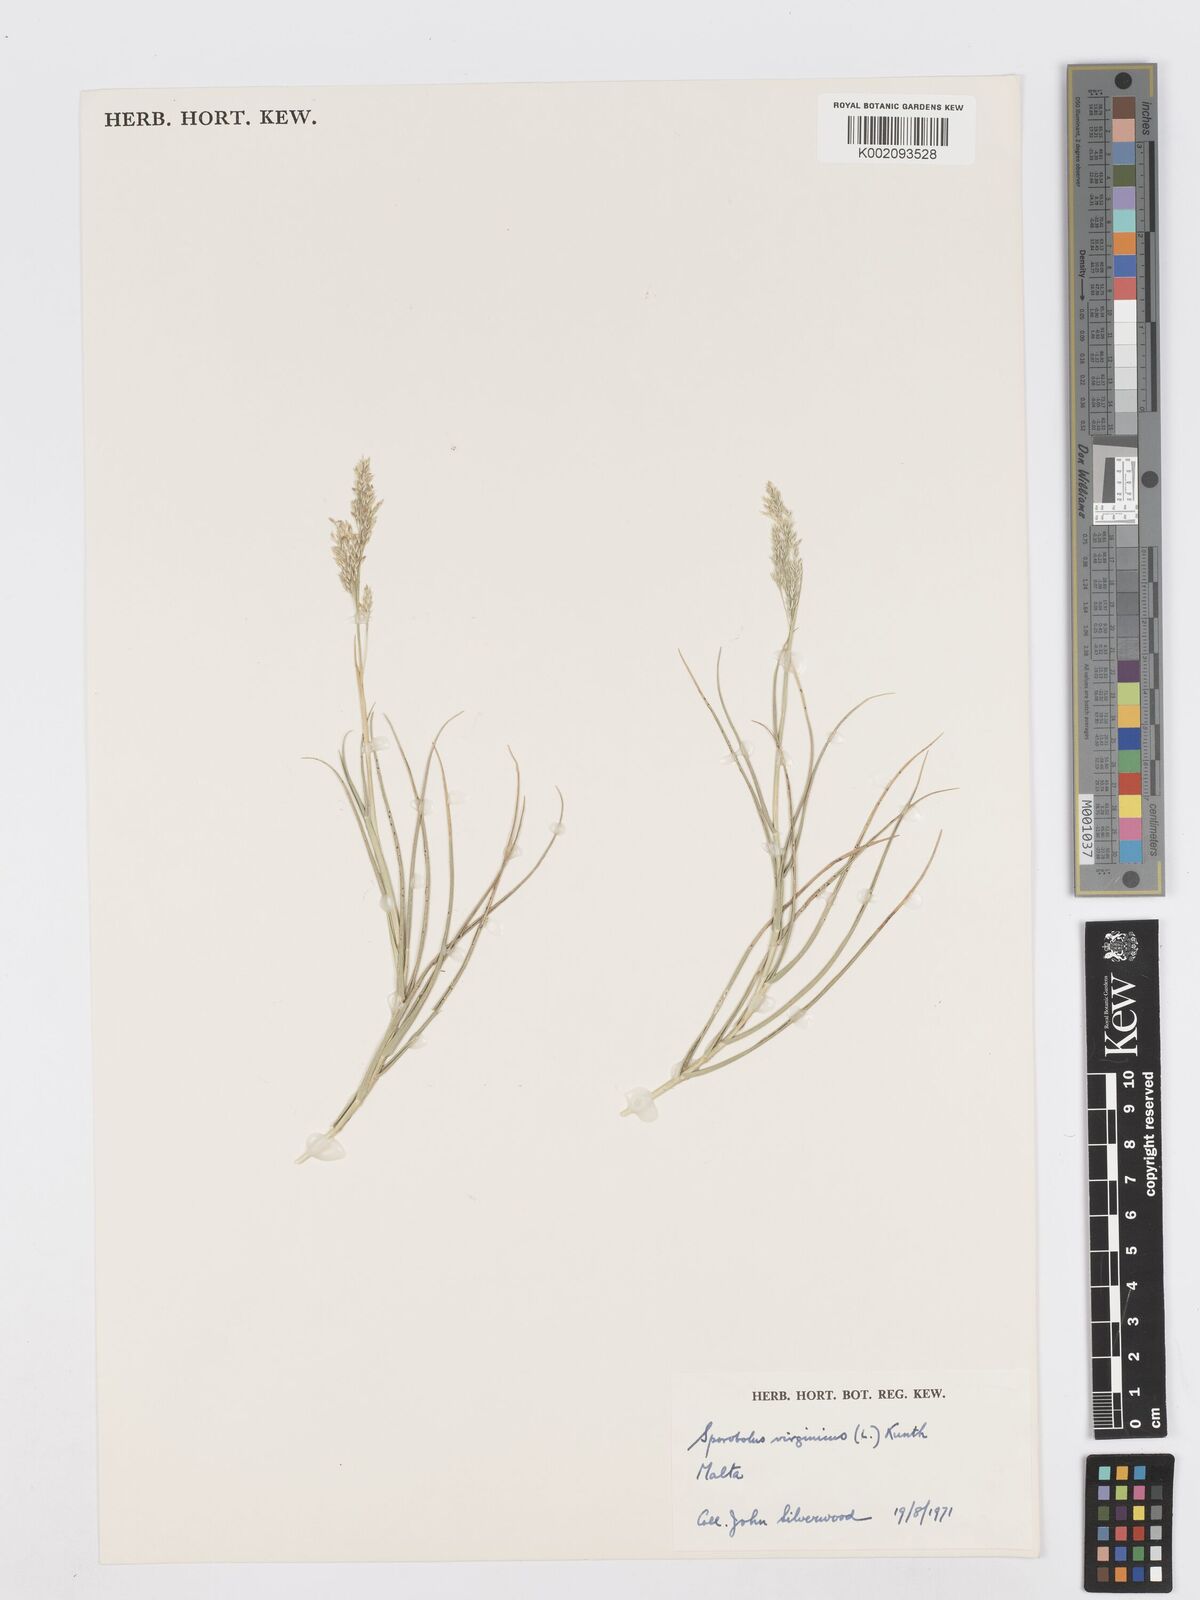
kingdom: Plantae
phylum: Tracheophyta
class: Liliopsida
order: Poales
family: Poaceae
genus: Sporobolus
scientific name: Sporobolus virginicus
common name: Beach dropseed
